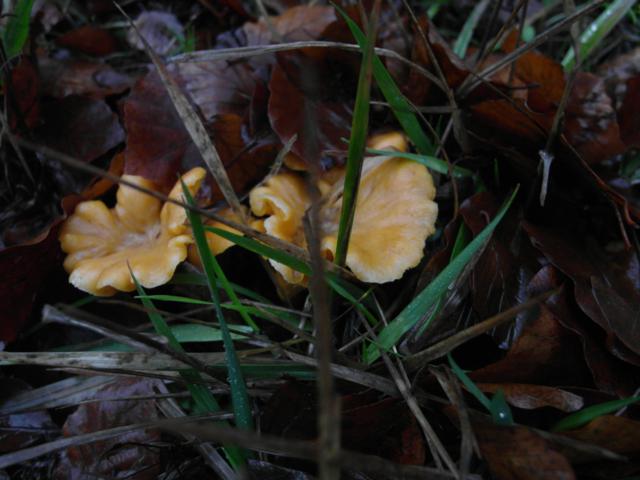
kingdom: Fungi
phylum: Basidiomycota
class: Agaricomycetes
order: Cantharellales
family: Hydnaceae
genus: Cantharellus
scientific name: Cantharellus cibarius
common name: almindelig kantarel
